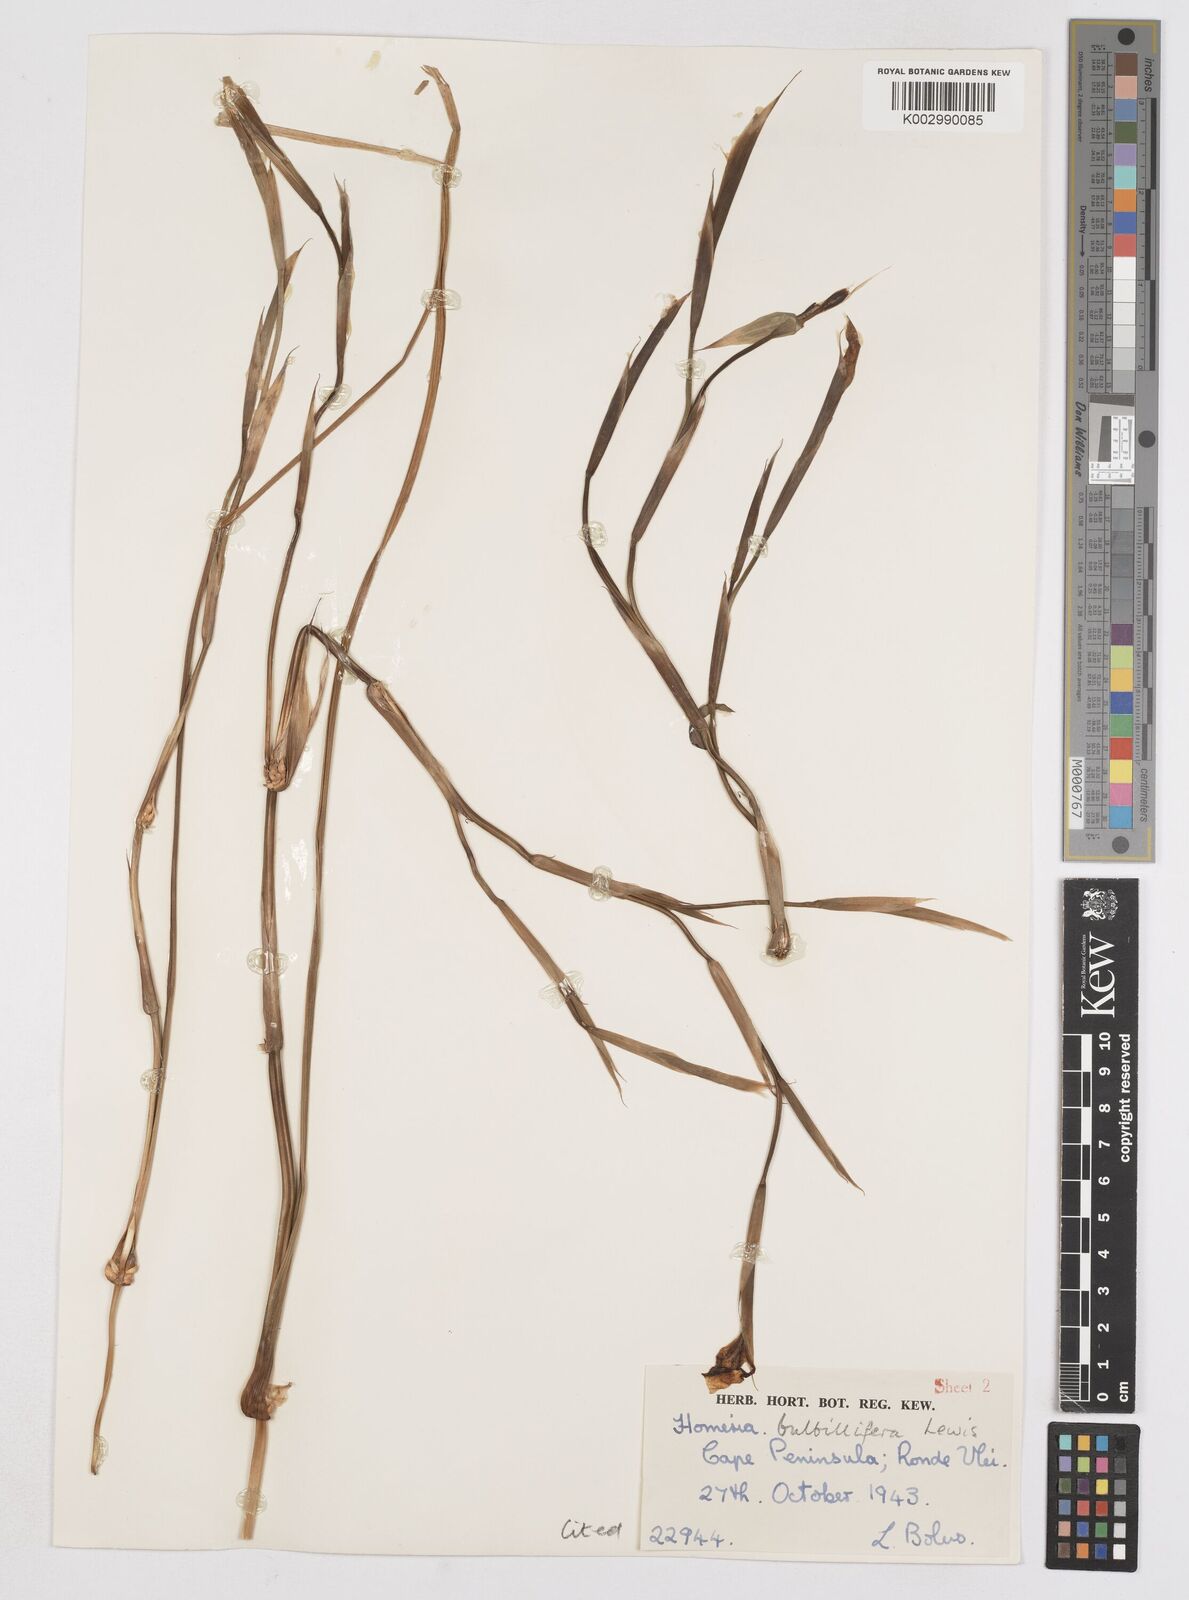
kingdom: Plantae
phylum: Tracheophyta
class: Liliopsida
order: Asparagales
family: Iridaceae
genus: Moraea
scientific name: Moraea bulbillifera
